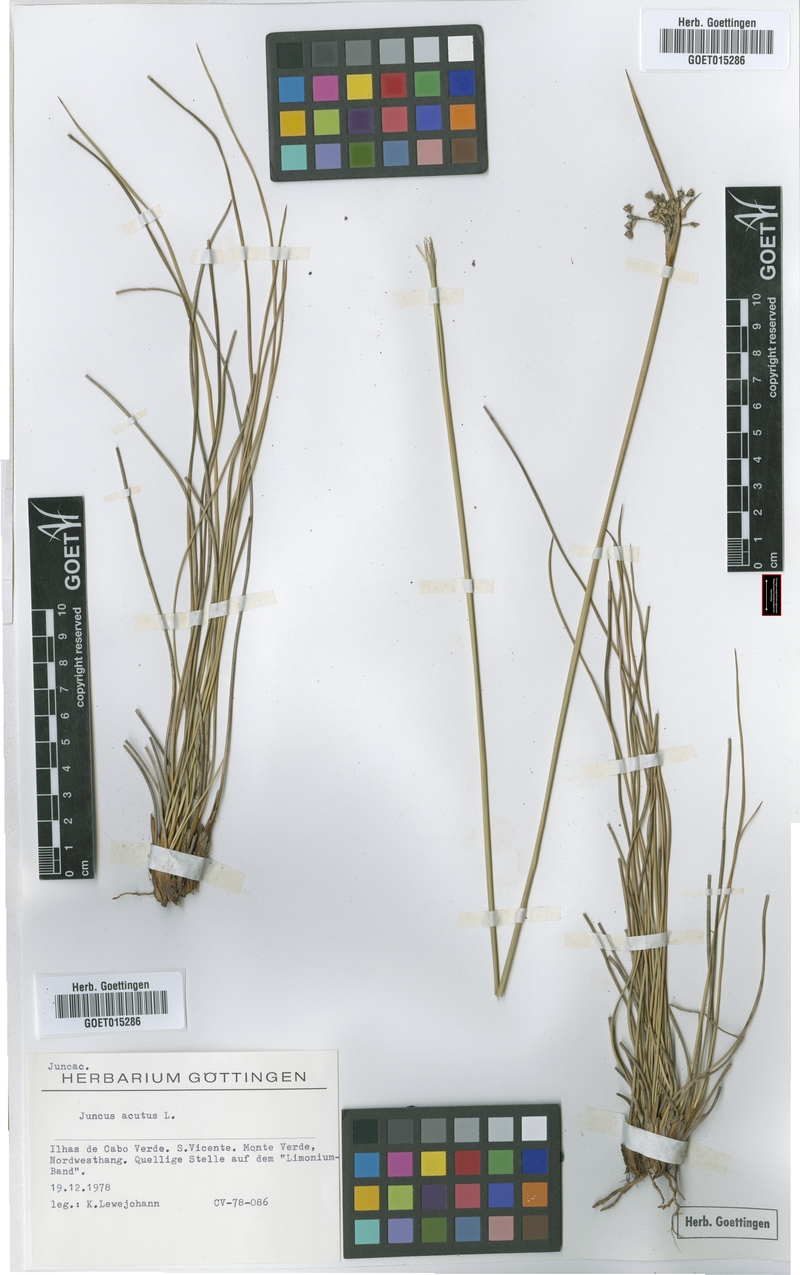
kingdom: Plantae
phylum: Tracheophyta
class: Liliopsida
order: Poales
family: Juncaceae
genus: Juncus
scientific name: Juncus acutus
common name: Sharp rush
